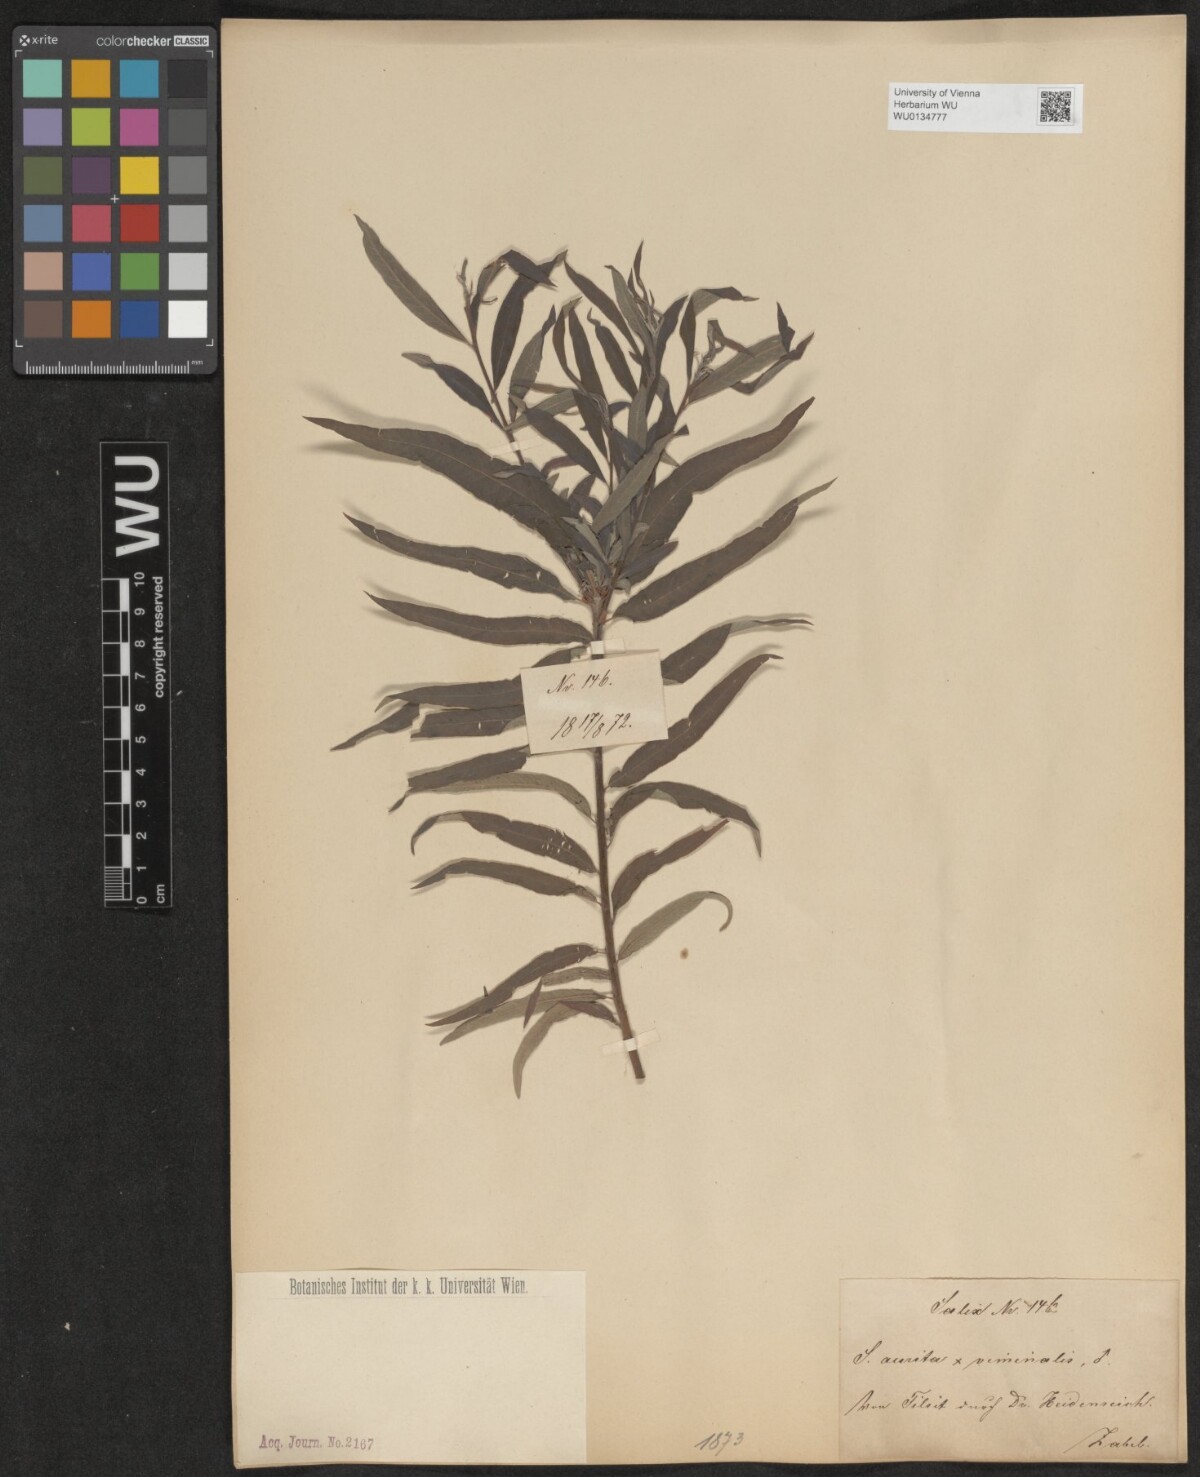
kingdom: Plantae
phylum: Tracheophyta
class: Magnoliopsida
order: Malpighiales
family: Salicaceae
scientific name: Salicaceae
